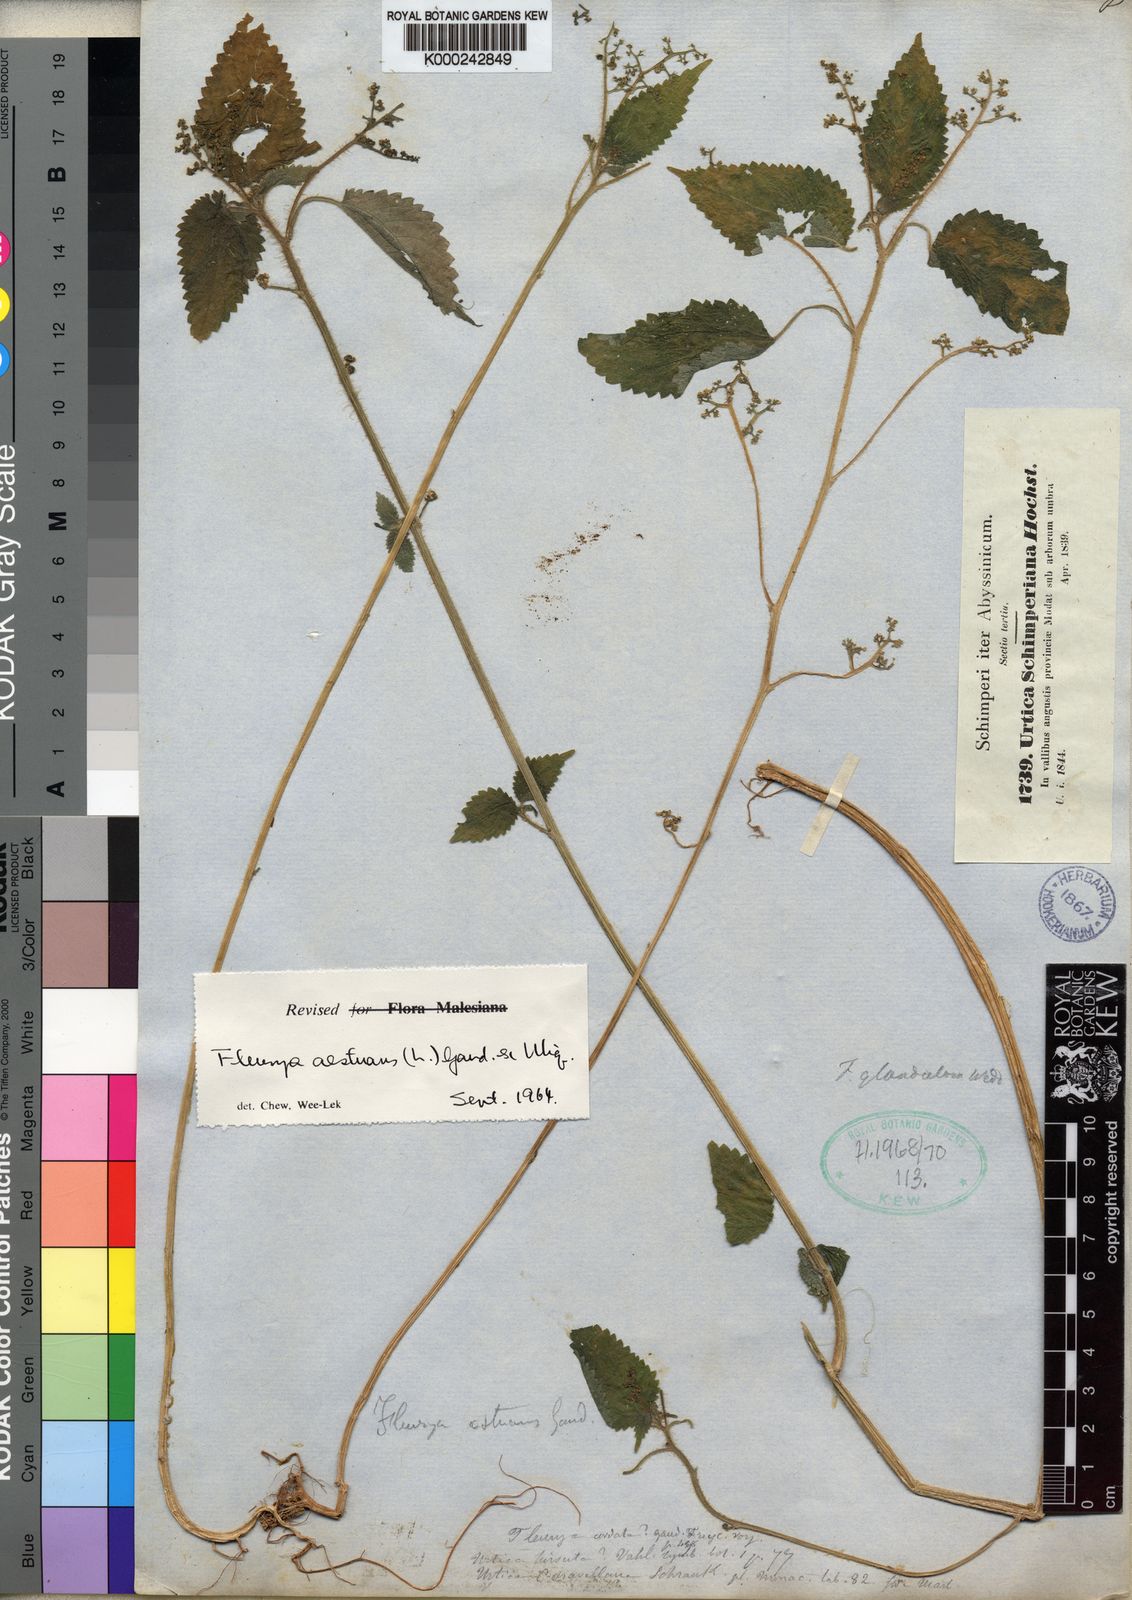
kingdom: Plantae
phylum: Tracheophyta
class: Magnoliopsida
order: Rosales
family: Urticaceae
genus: Laportea
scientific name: Laportea aestuans
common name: West indian woodnettle
